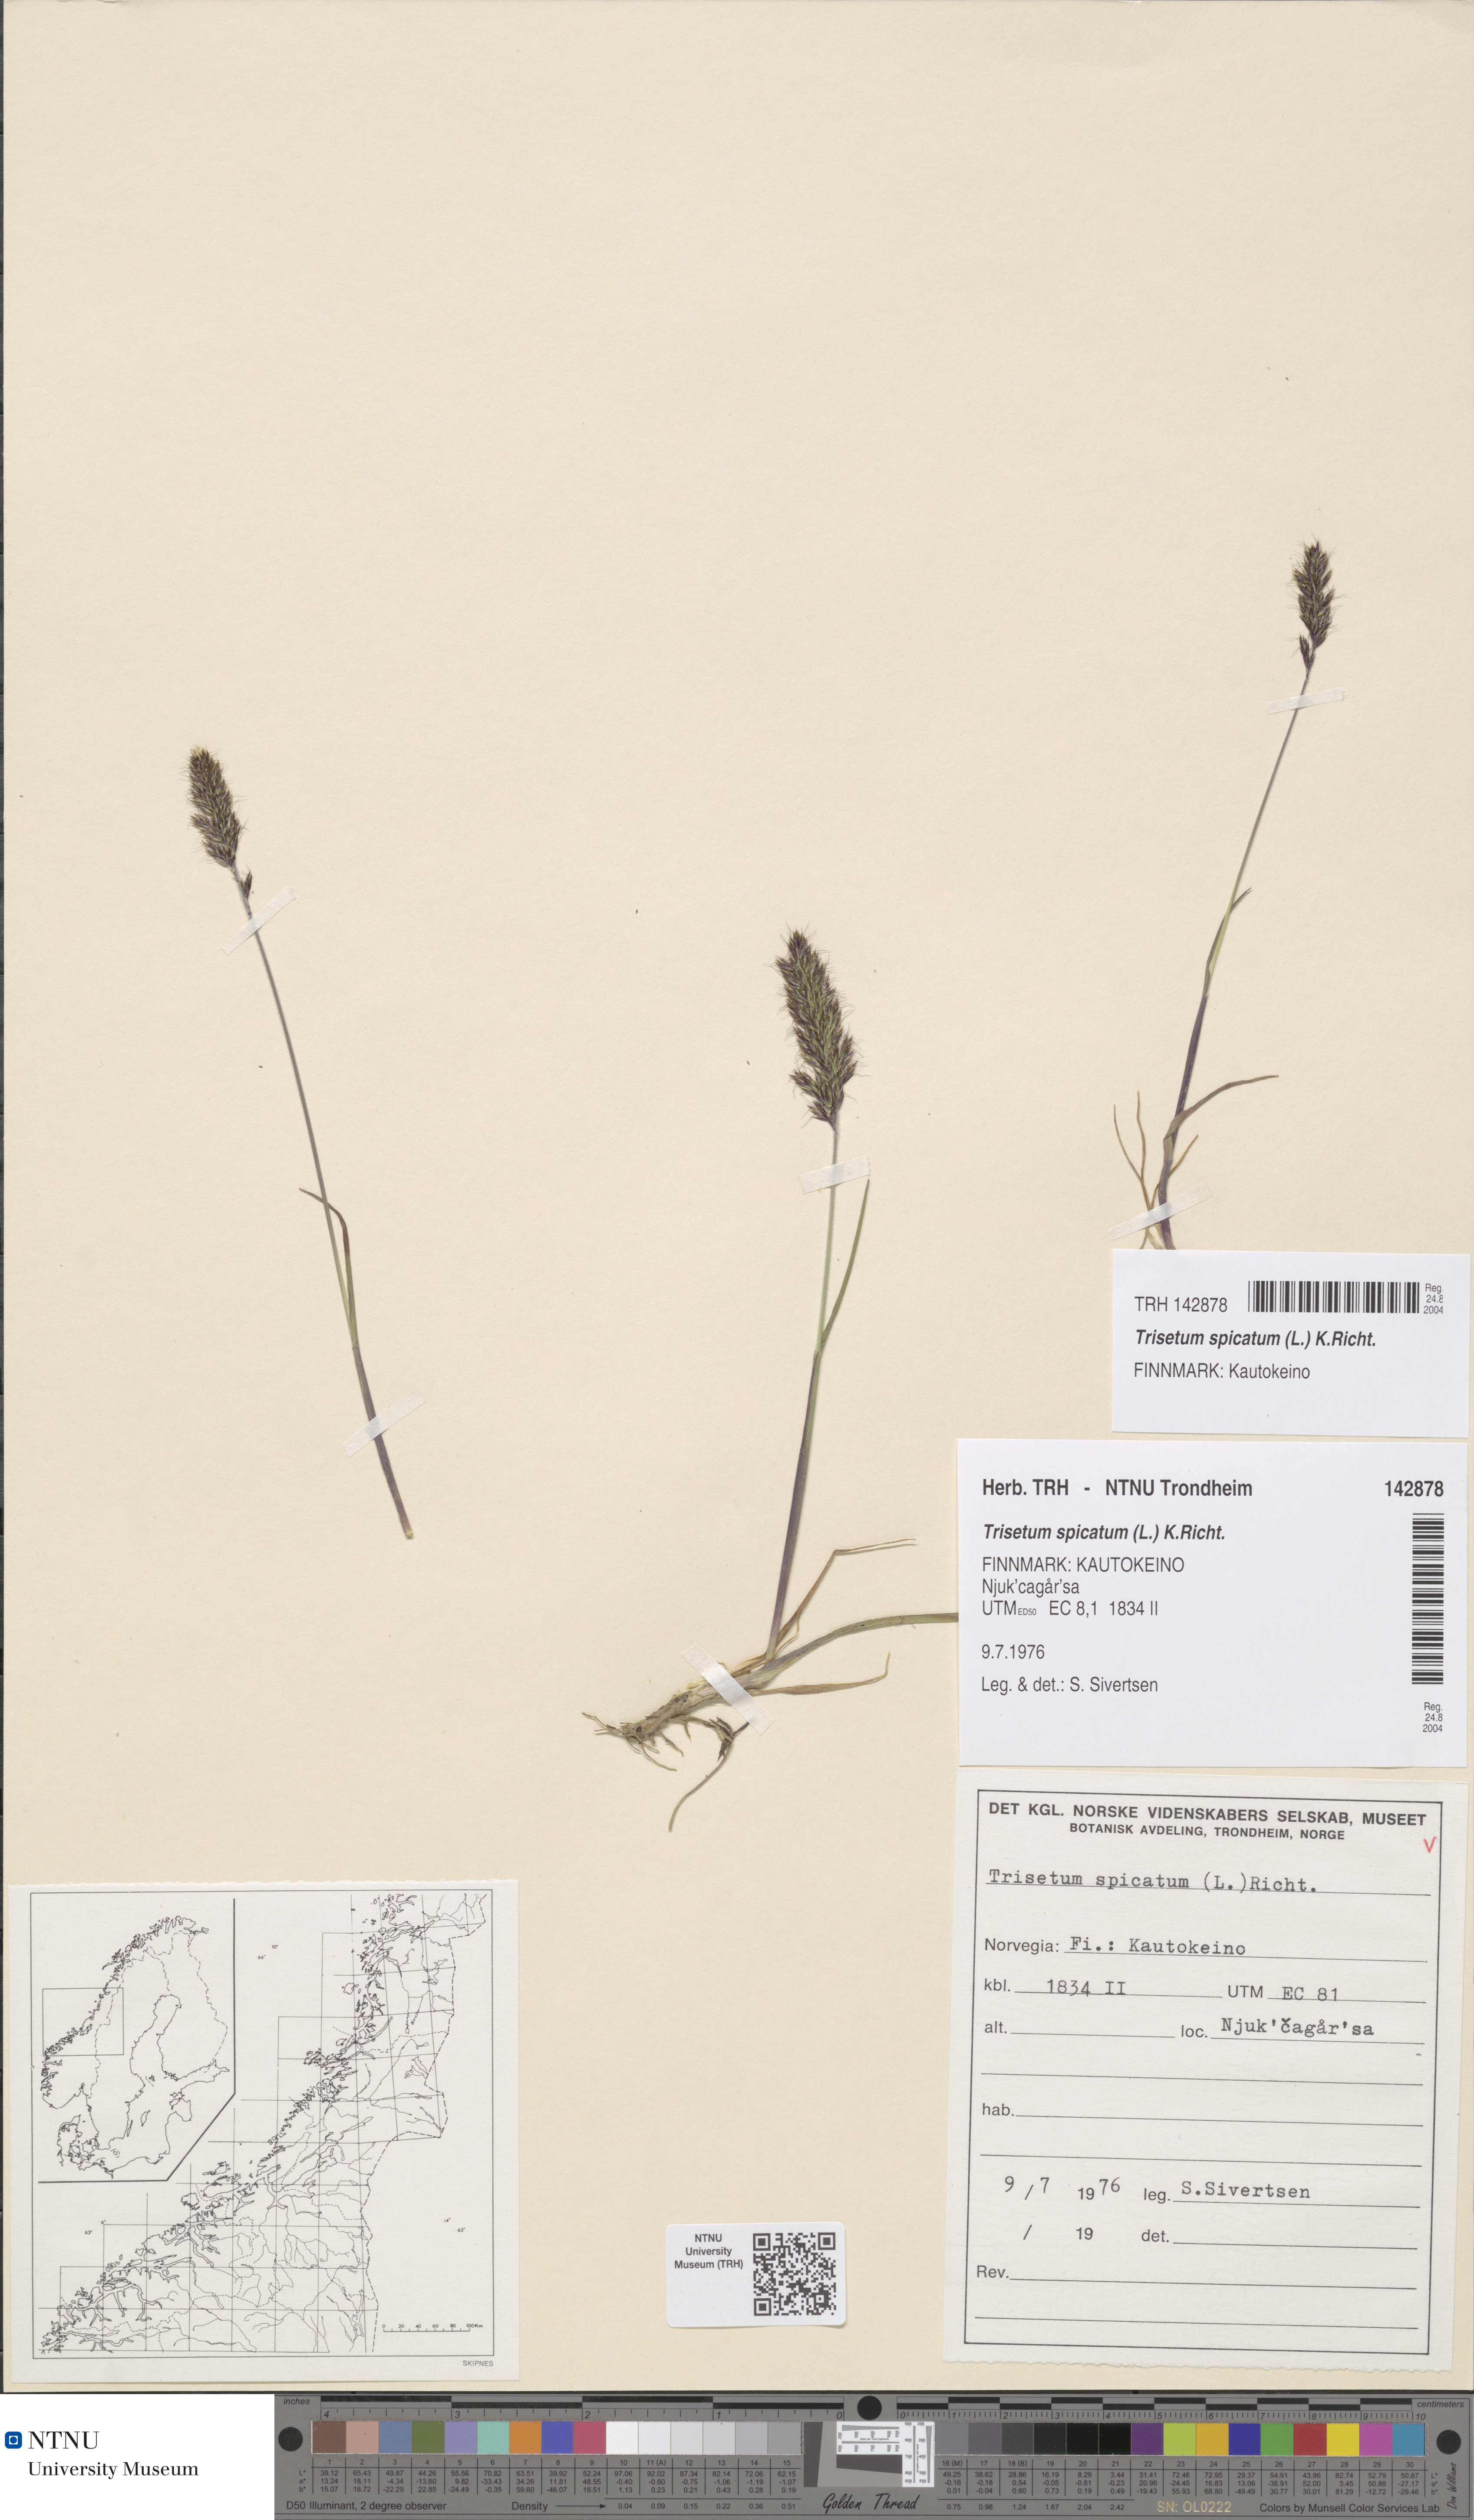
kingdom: Plantae
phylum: Tracheophyta
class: Liliopsida
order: Poales
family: Poaceae
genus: Koeleria
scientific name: Koeleria spicata
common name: Mountain trisetum
